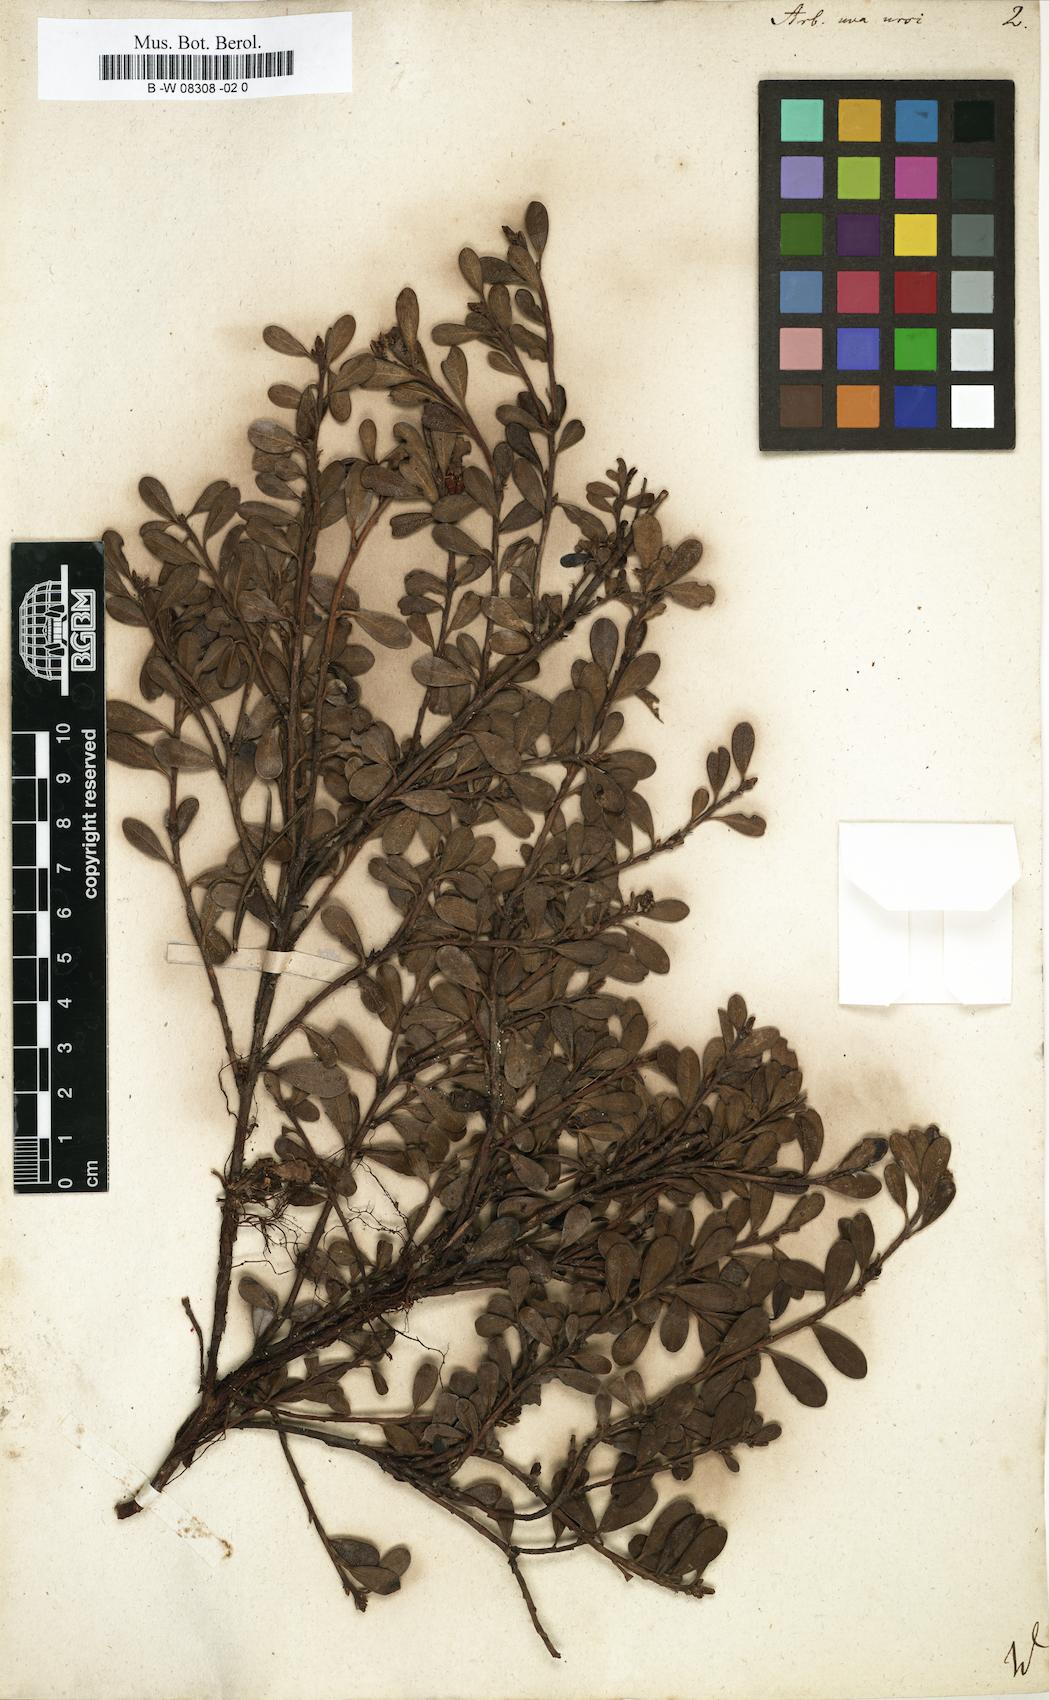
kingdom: Plantae
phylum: Tracheophyta
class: Magnoliopsida
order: Ericales
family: Ericaceae
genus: Arctostaphylos
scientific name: Arctostaphylos uva-ursi
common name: Bearberry
